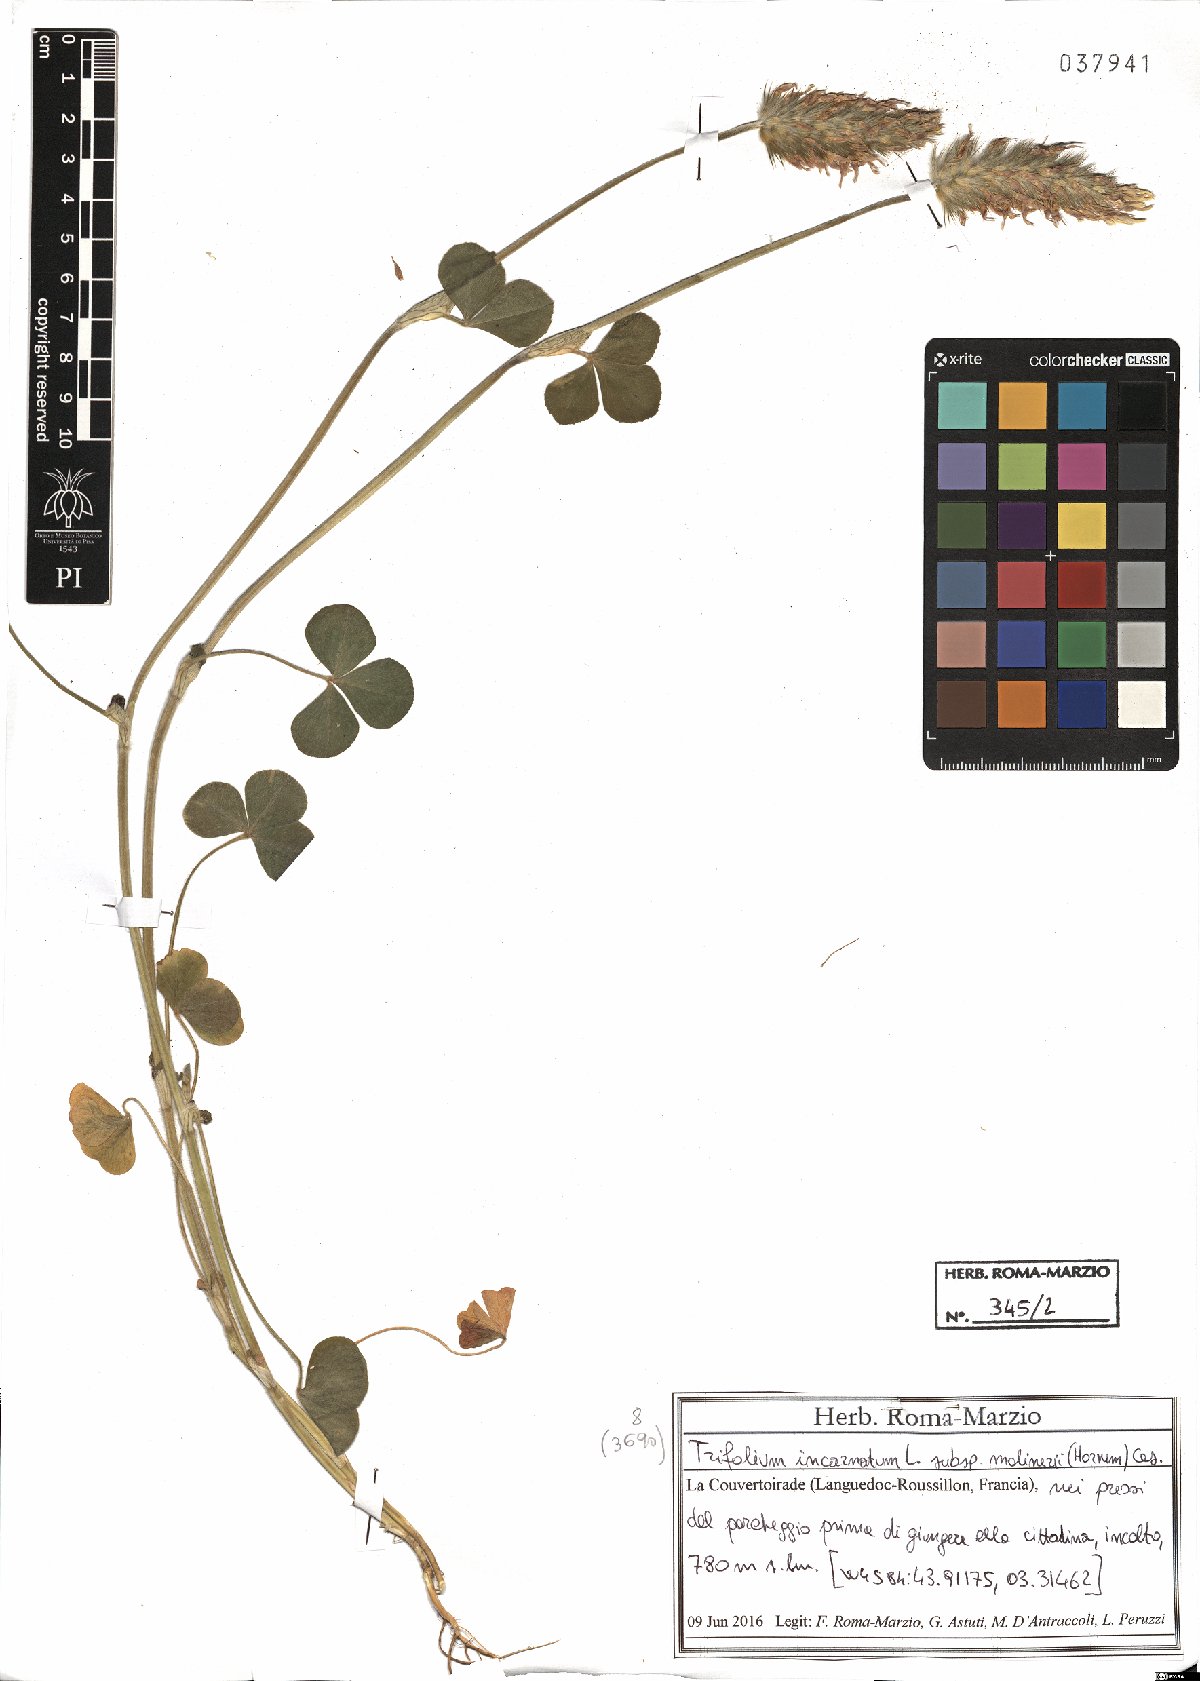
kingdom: Plantae
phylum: Tracheophyta
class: Magnoliopsida
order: Fabales
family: Fabaceae
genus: Trifolium
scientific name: Trifolium incarnatum
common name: Crimson clover
